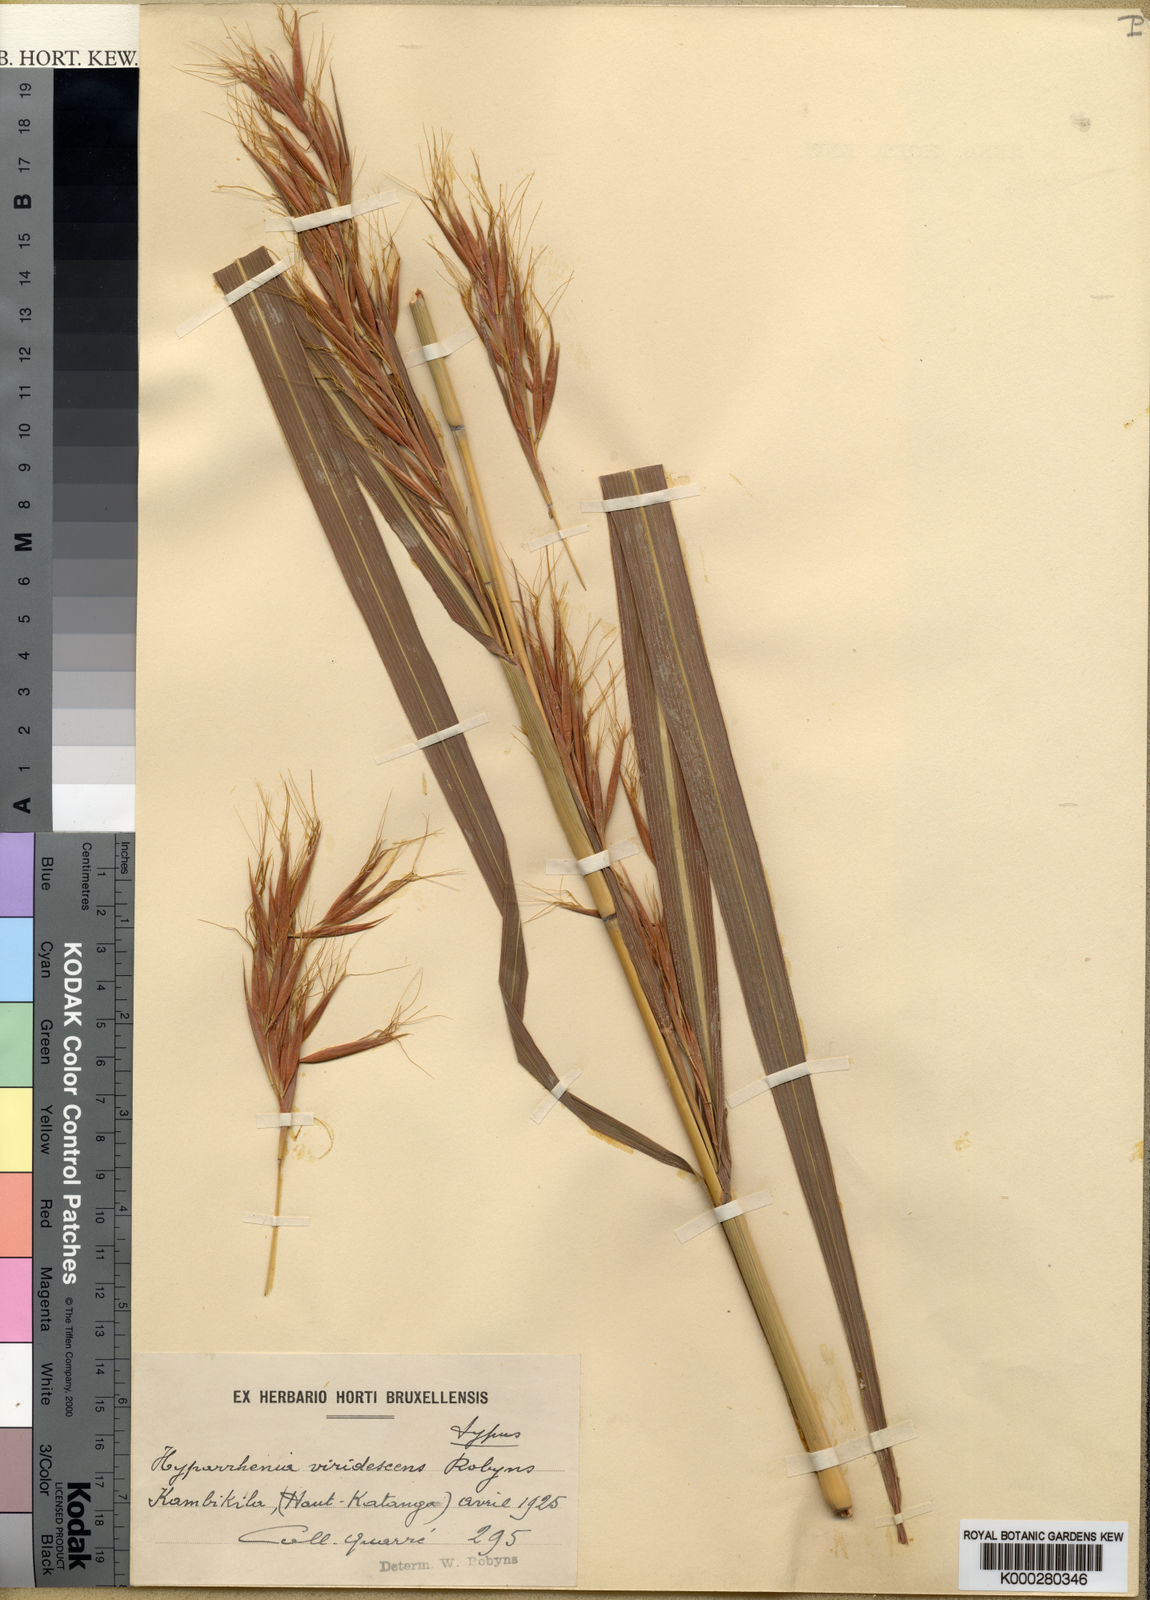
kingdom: Plantae
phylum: Tracheophyta
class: Liliopsida
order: Poales
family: Poaceae
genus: Hyparrhenia
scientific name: Hyparrhenia schimperi
